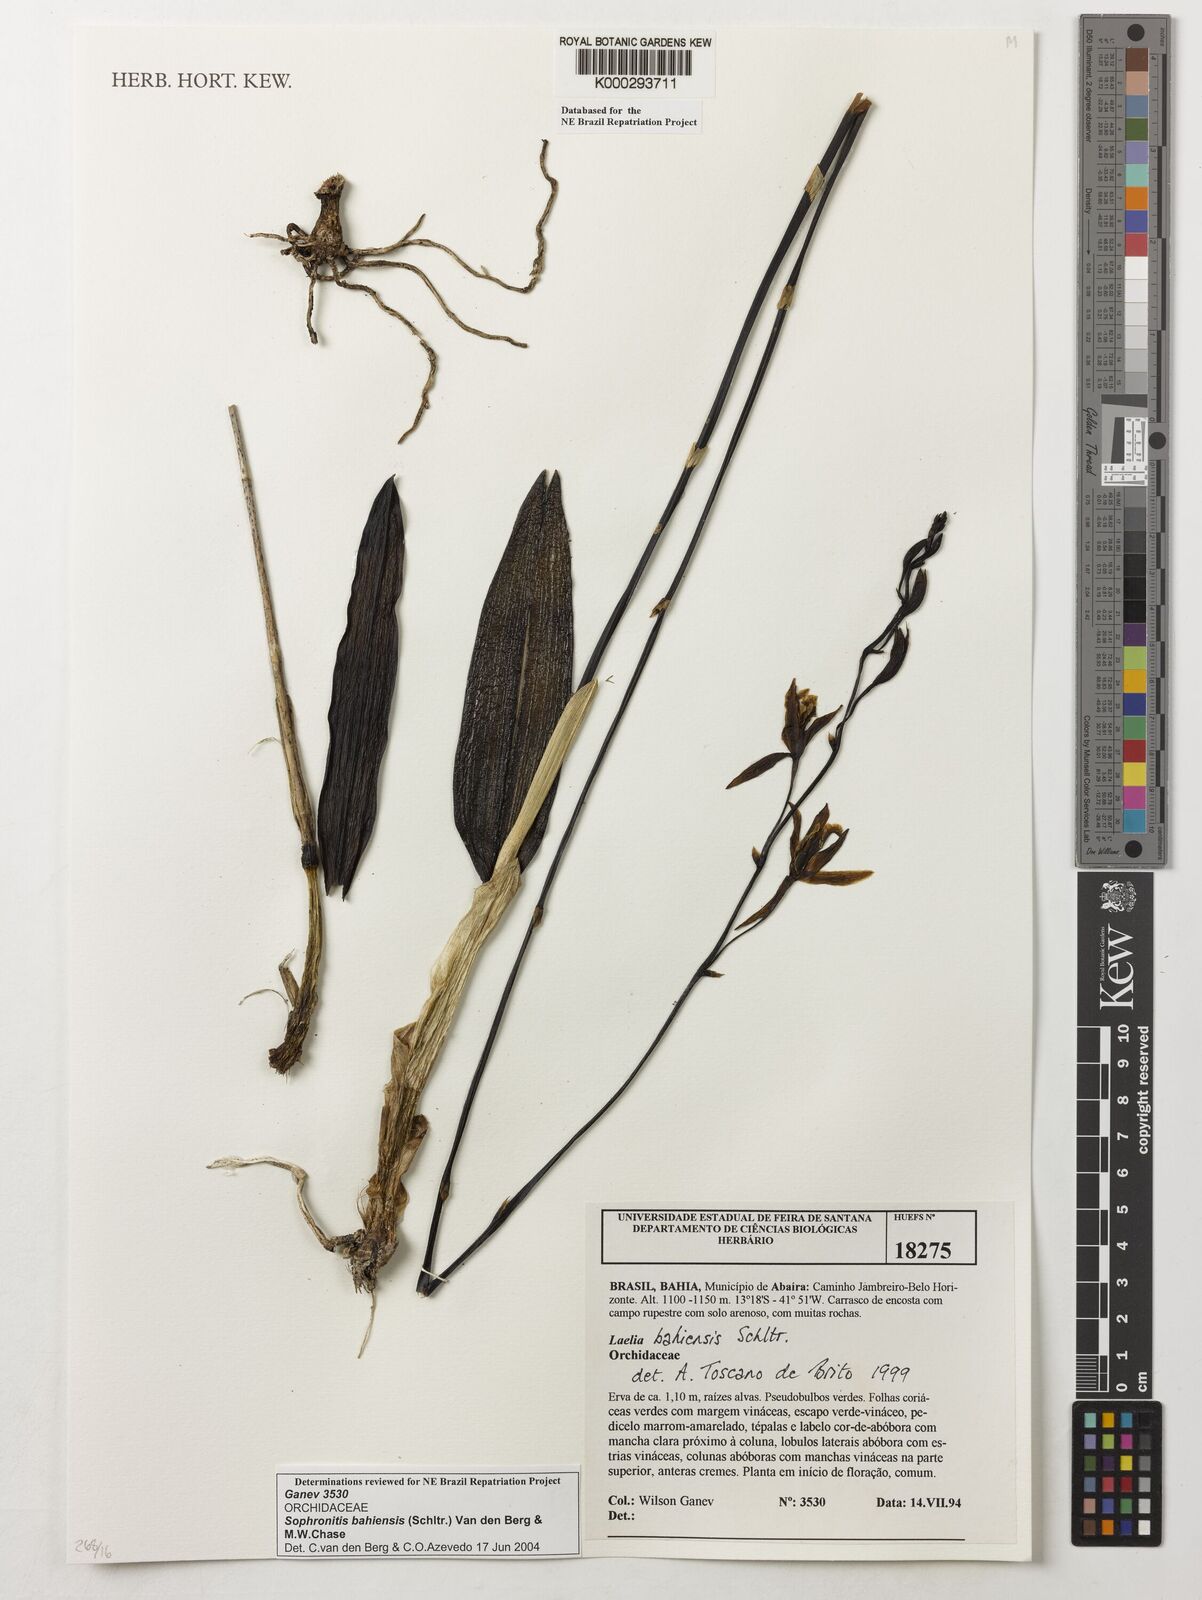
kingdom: Plantae
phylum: Tracheophyta
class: Liliopsida
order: Asparagales
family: Orchidaceae
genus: Cattleya
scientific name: Cattleya luetzelburgii
